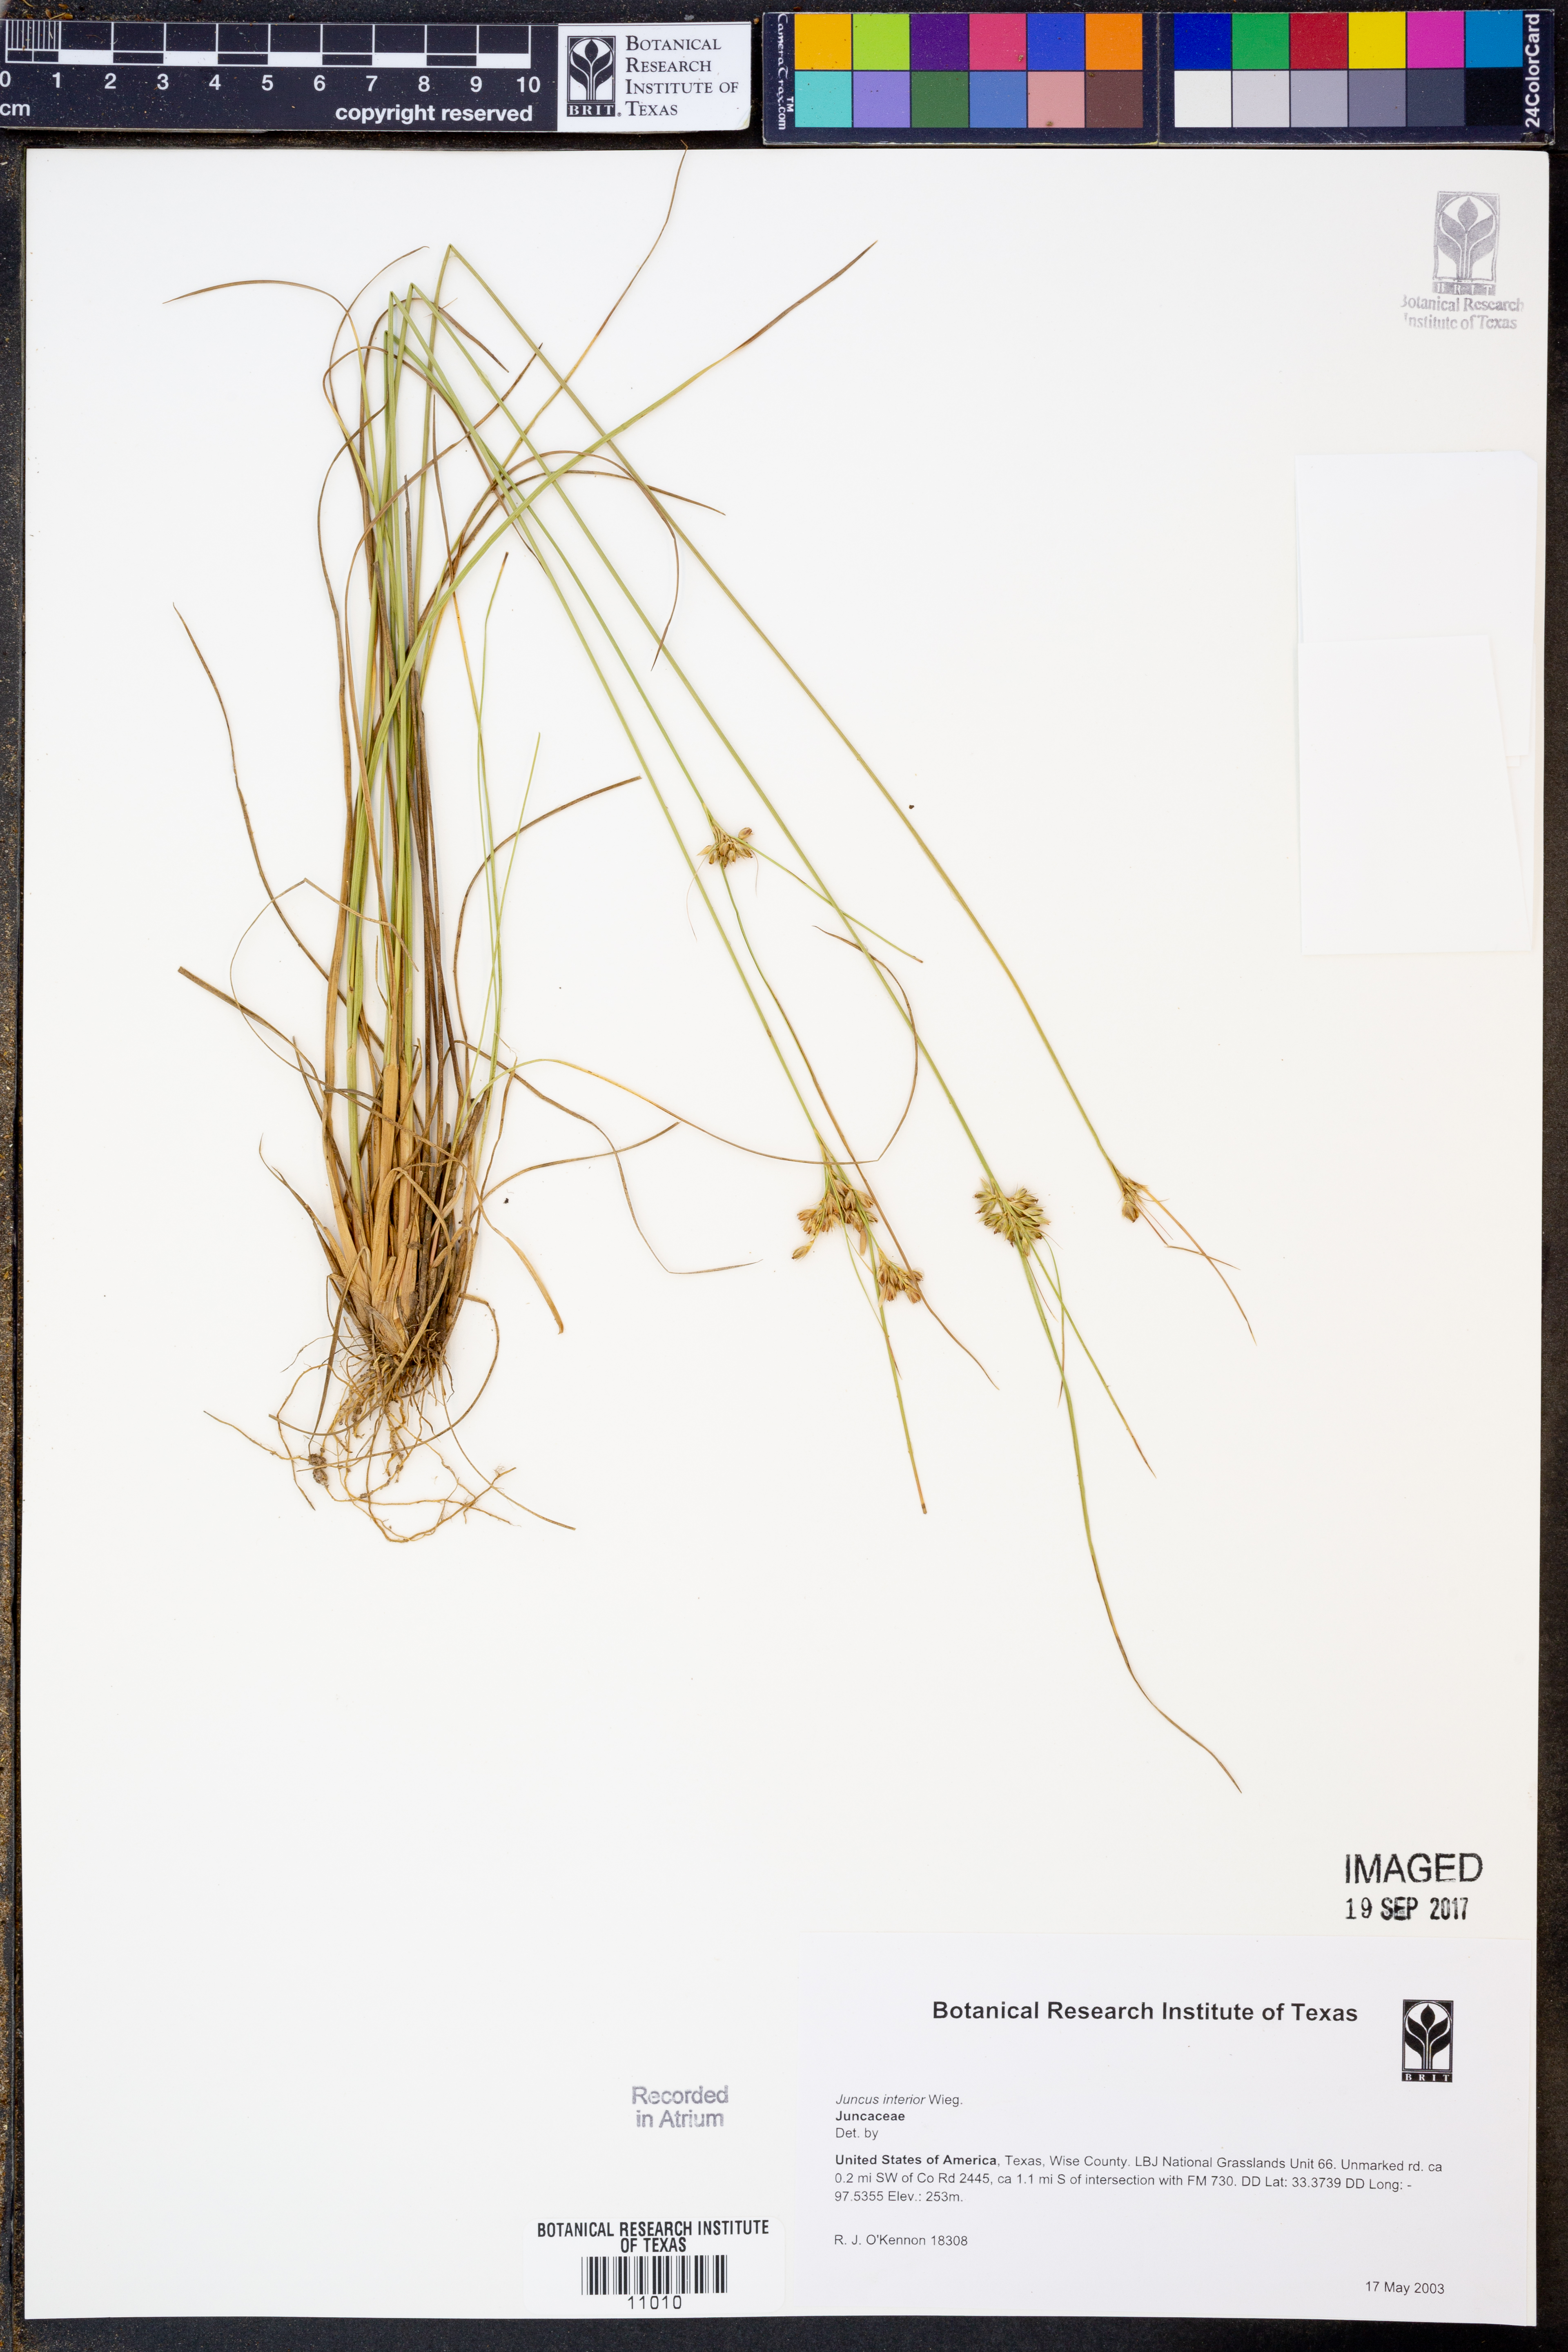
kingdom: Plantae
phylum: Tracheophyta
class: Liliopsida
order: Poales
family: Juncaceae
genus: Juncus
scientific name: Juncus interior
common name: Interior rush
